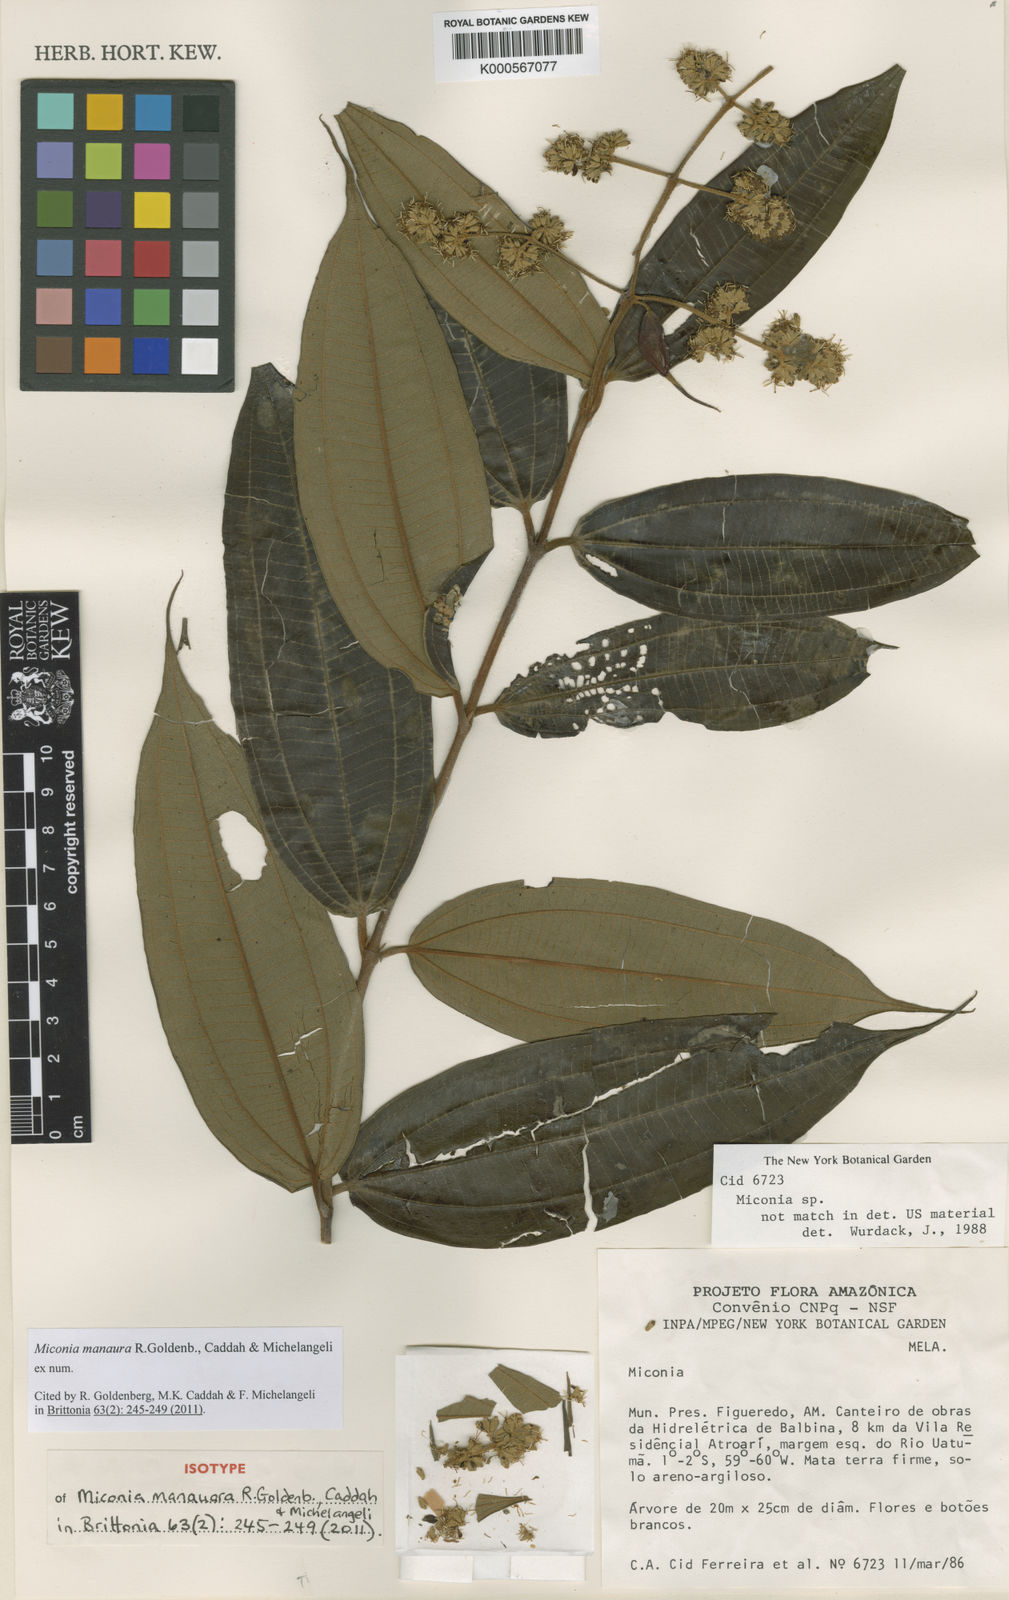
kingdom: Plantae
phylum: Tracheophyta
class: Magnoliopsida
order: Myrtales
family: Melastomataceae
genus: Miconia
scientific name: Miconia manauara
